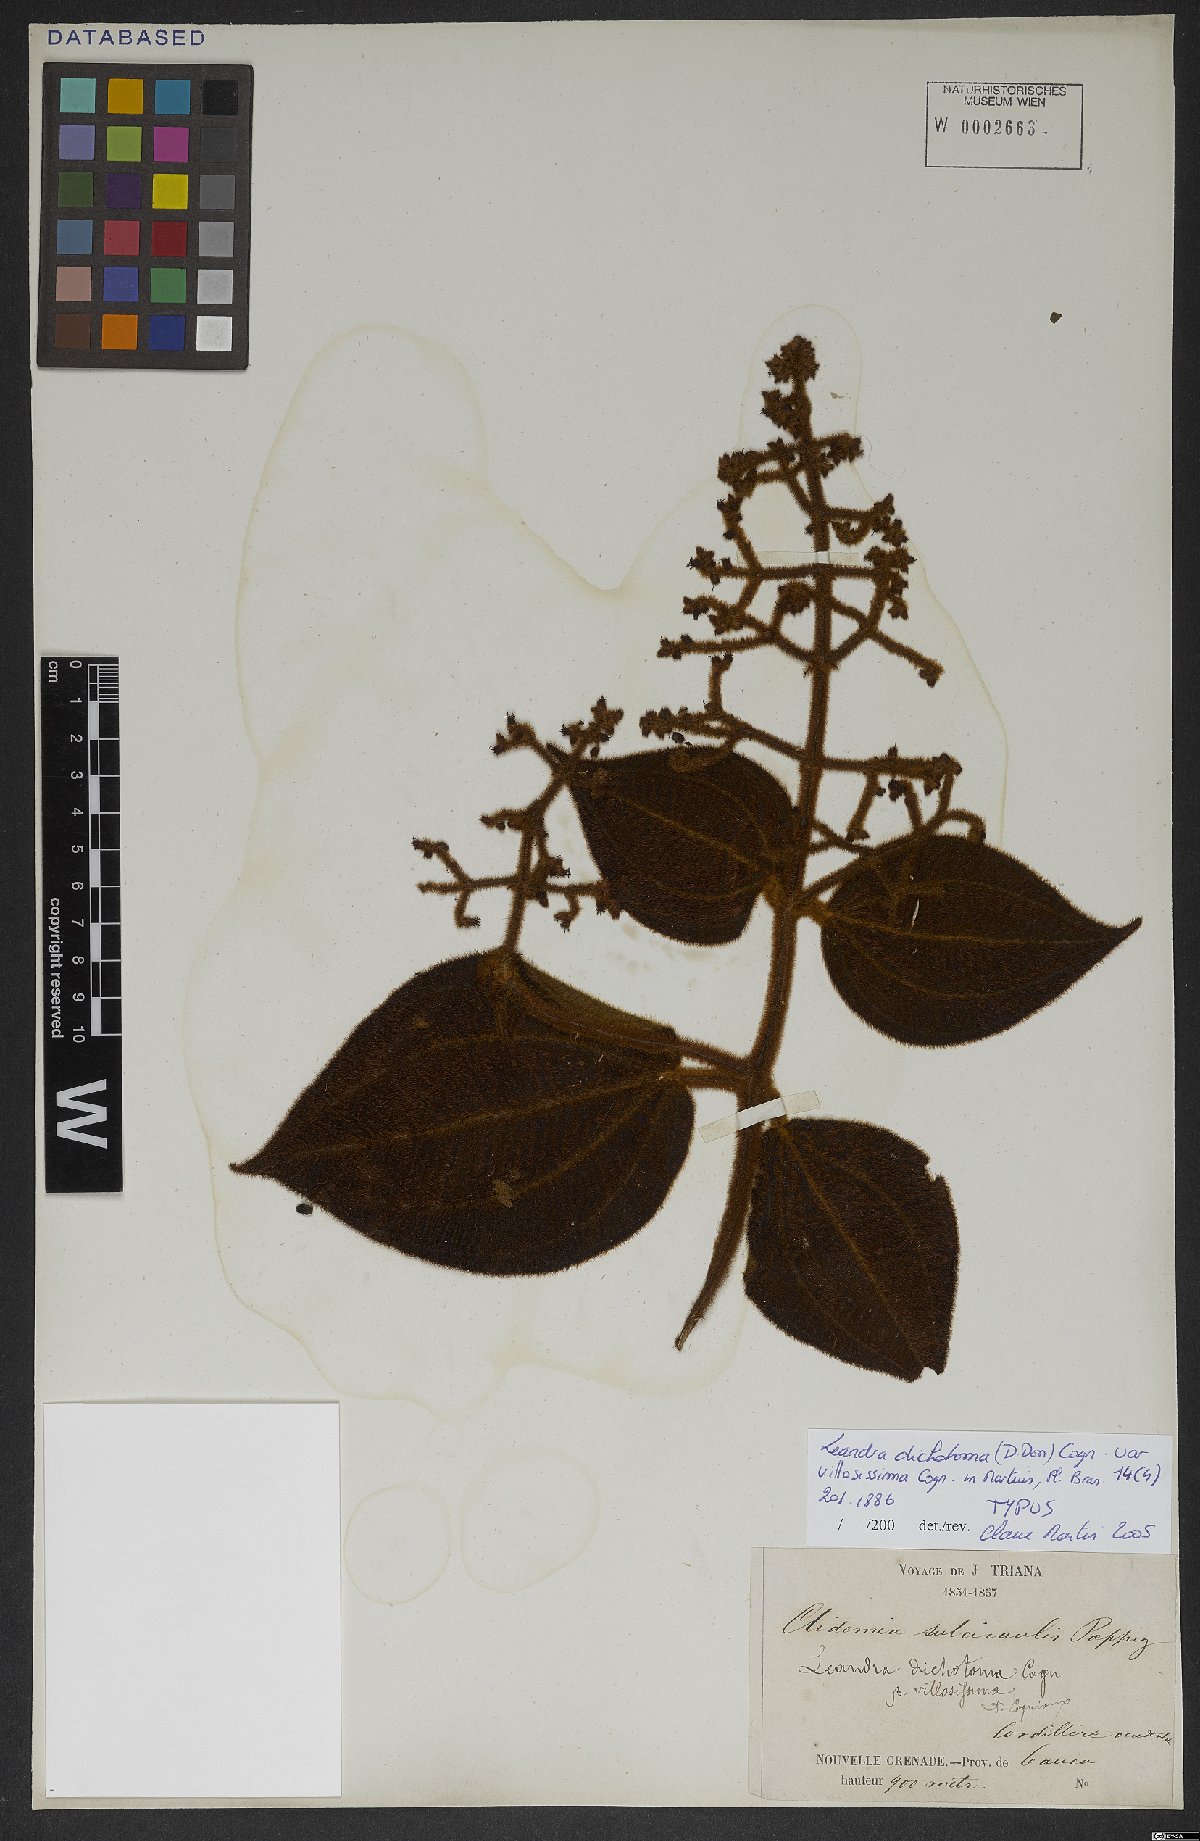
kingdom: Plantae
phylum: Tracheophyta
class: Magnoliopsida
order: Myrtales
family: Melastomataceae
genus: Miconia
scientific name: Miconia sulcicaulis
